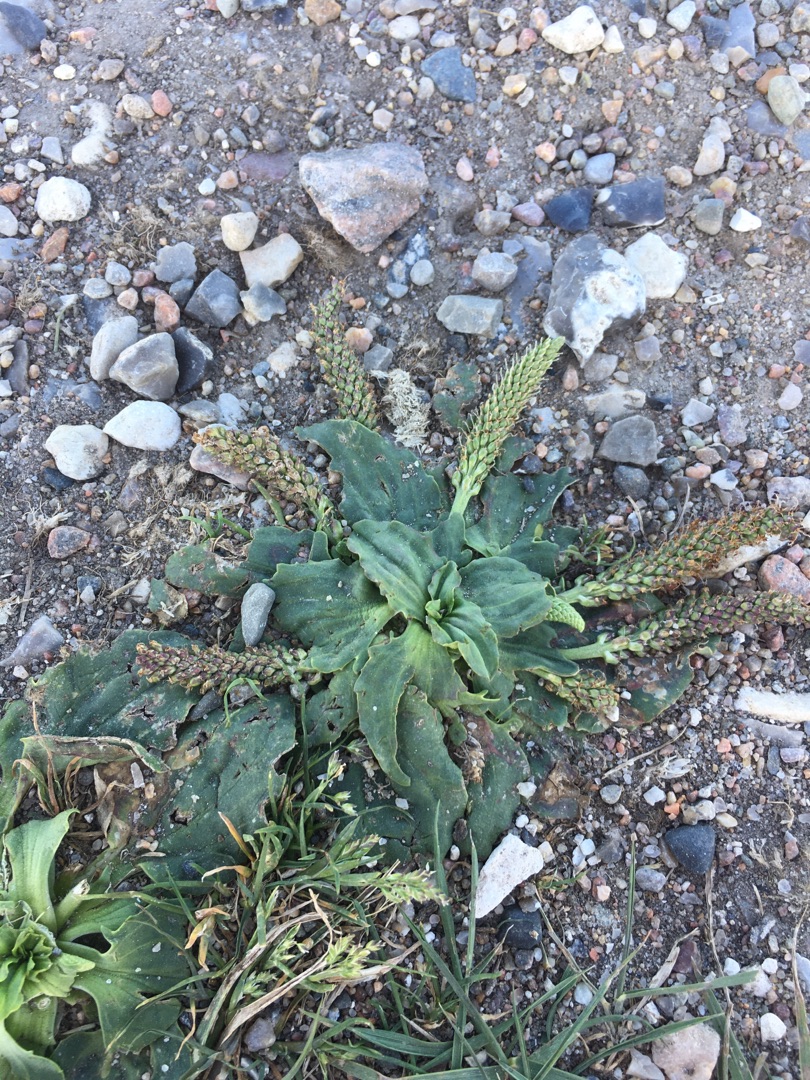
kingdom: Plantae
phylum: Tracheophyta
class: Magnoliopsida
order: Lamiales
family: Plantaginaceae
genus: Plantago
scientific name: Plantago major
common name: Glat vejbred
